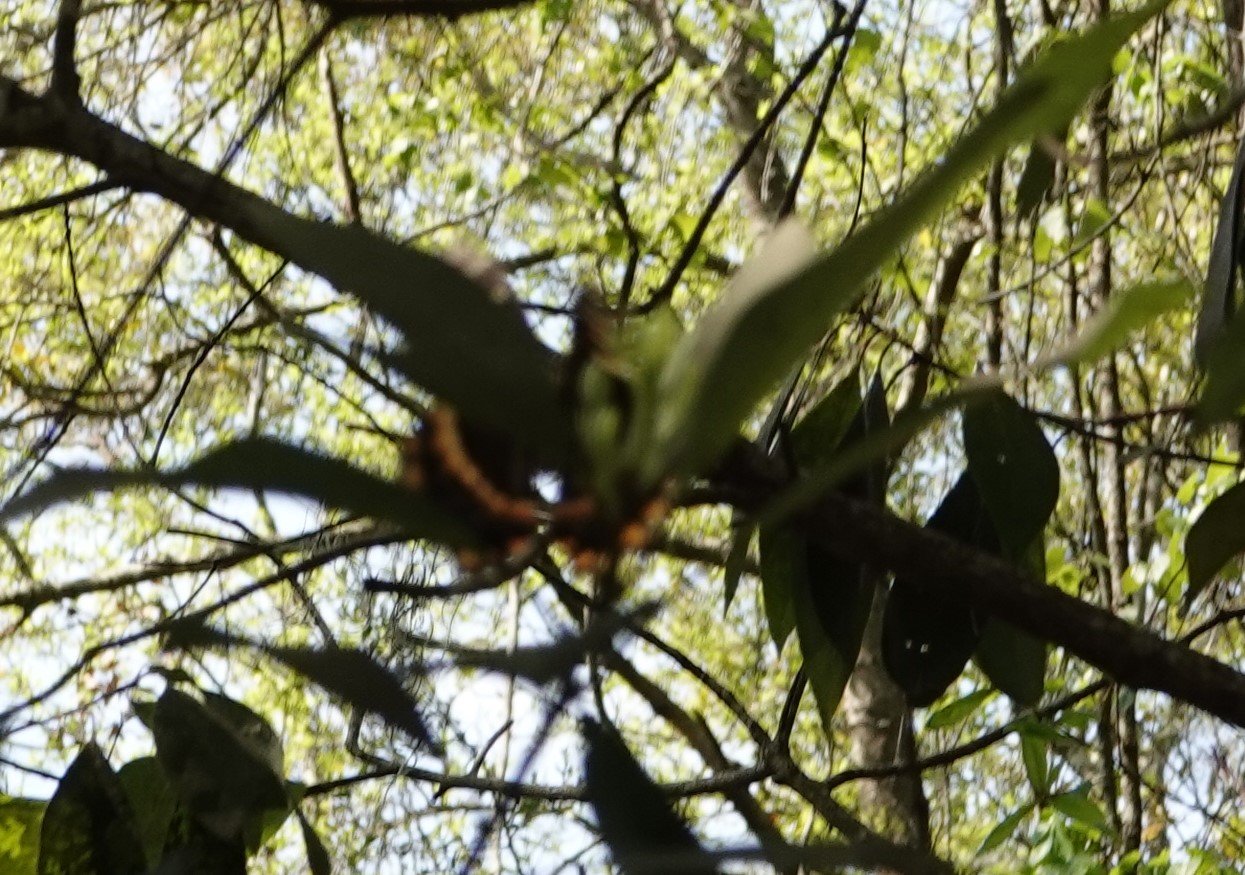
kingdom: Animalia
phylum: Arthropoda
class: Insecta
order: Lepidoptera
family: Papilionidae
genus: Pterourus
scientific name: Pterourus palamedes
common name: Palamedes Swallowtail
